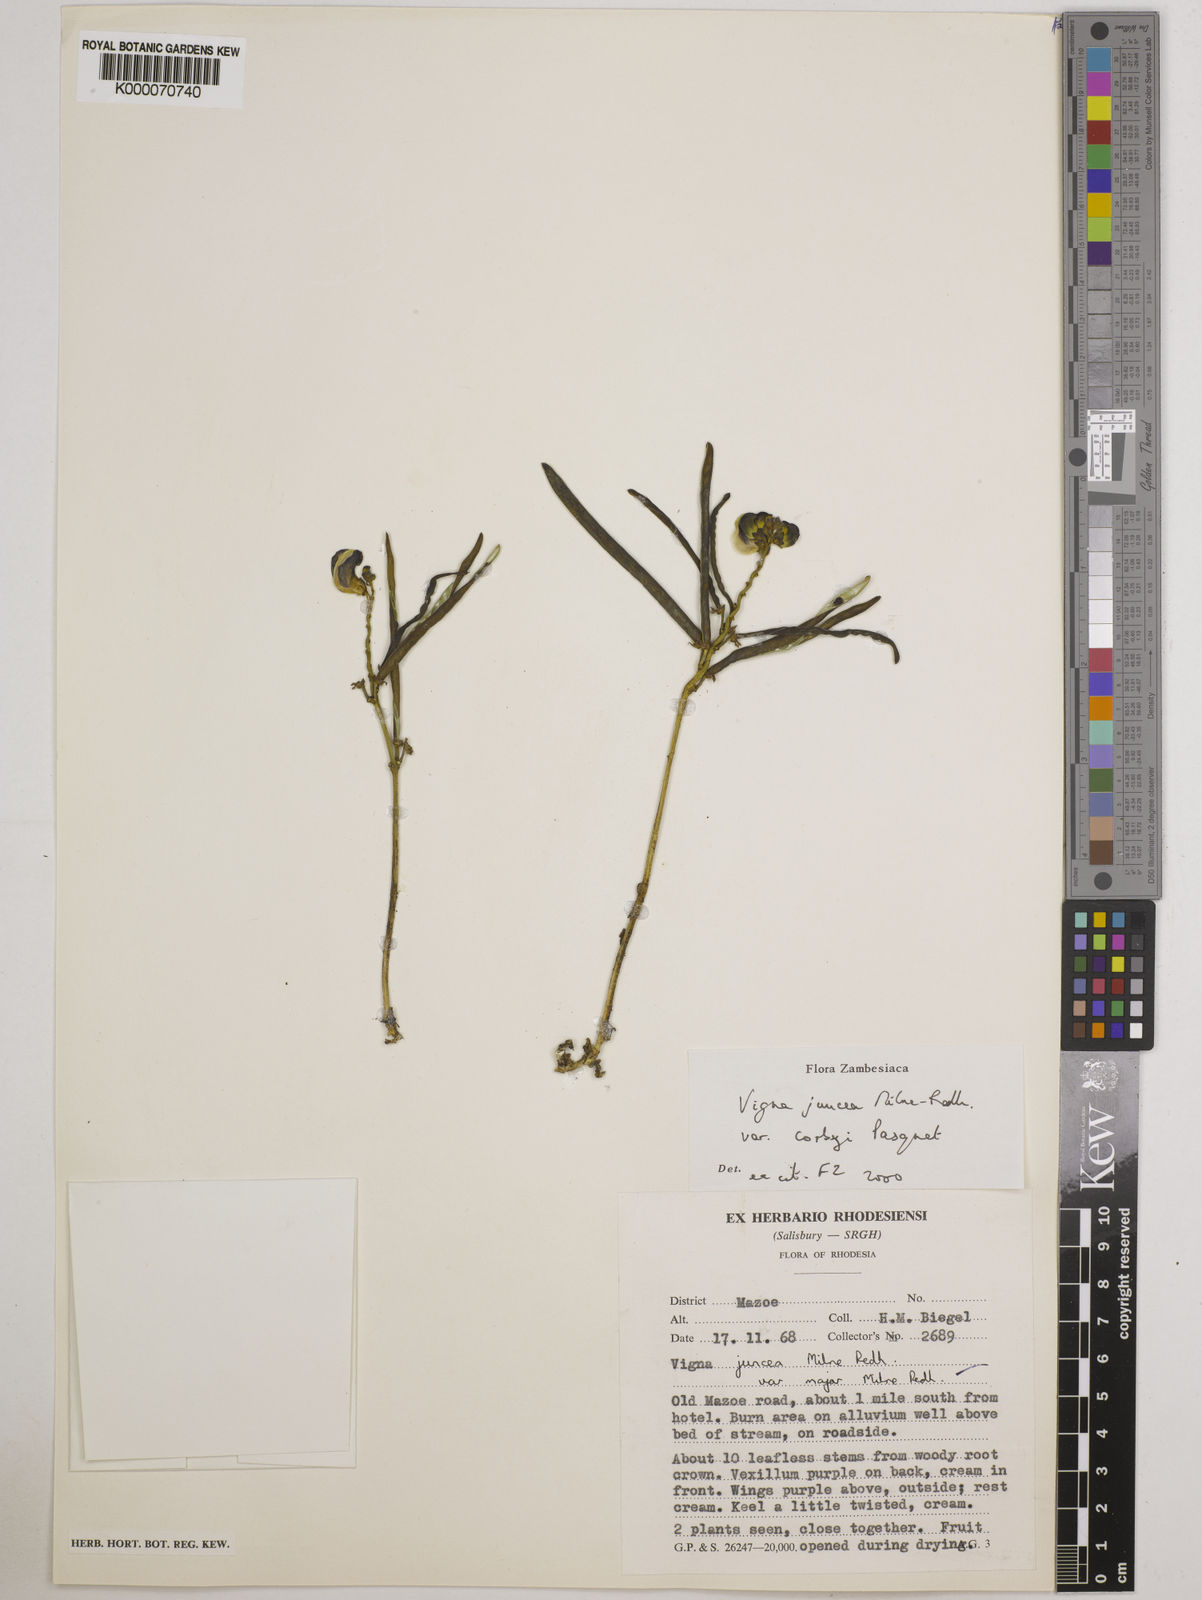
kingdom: Plantae
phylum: Tracheophyta
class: Magnoliopsida
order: Fabales
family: Fabaceae
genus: Vigna
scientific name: Vigna juncea
